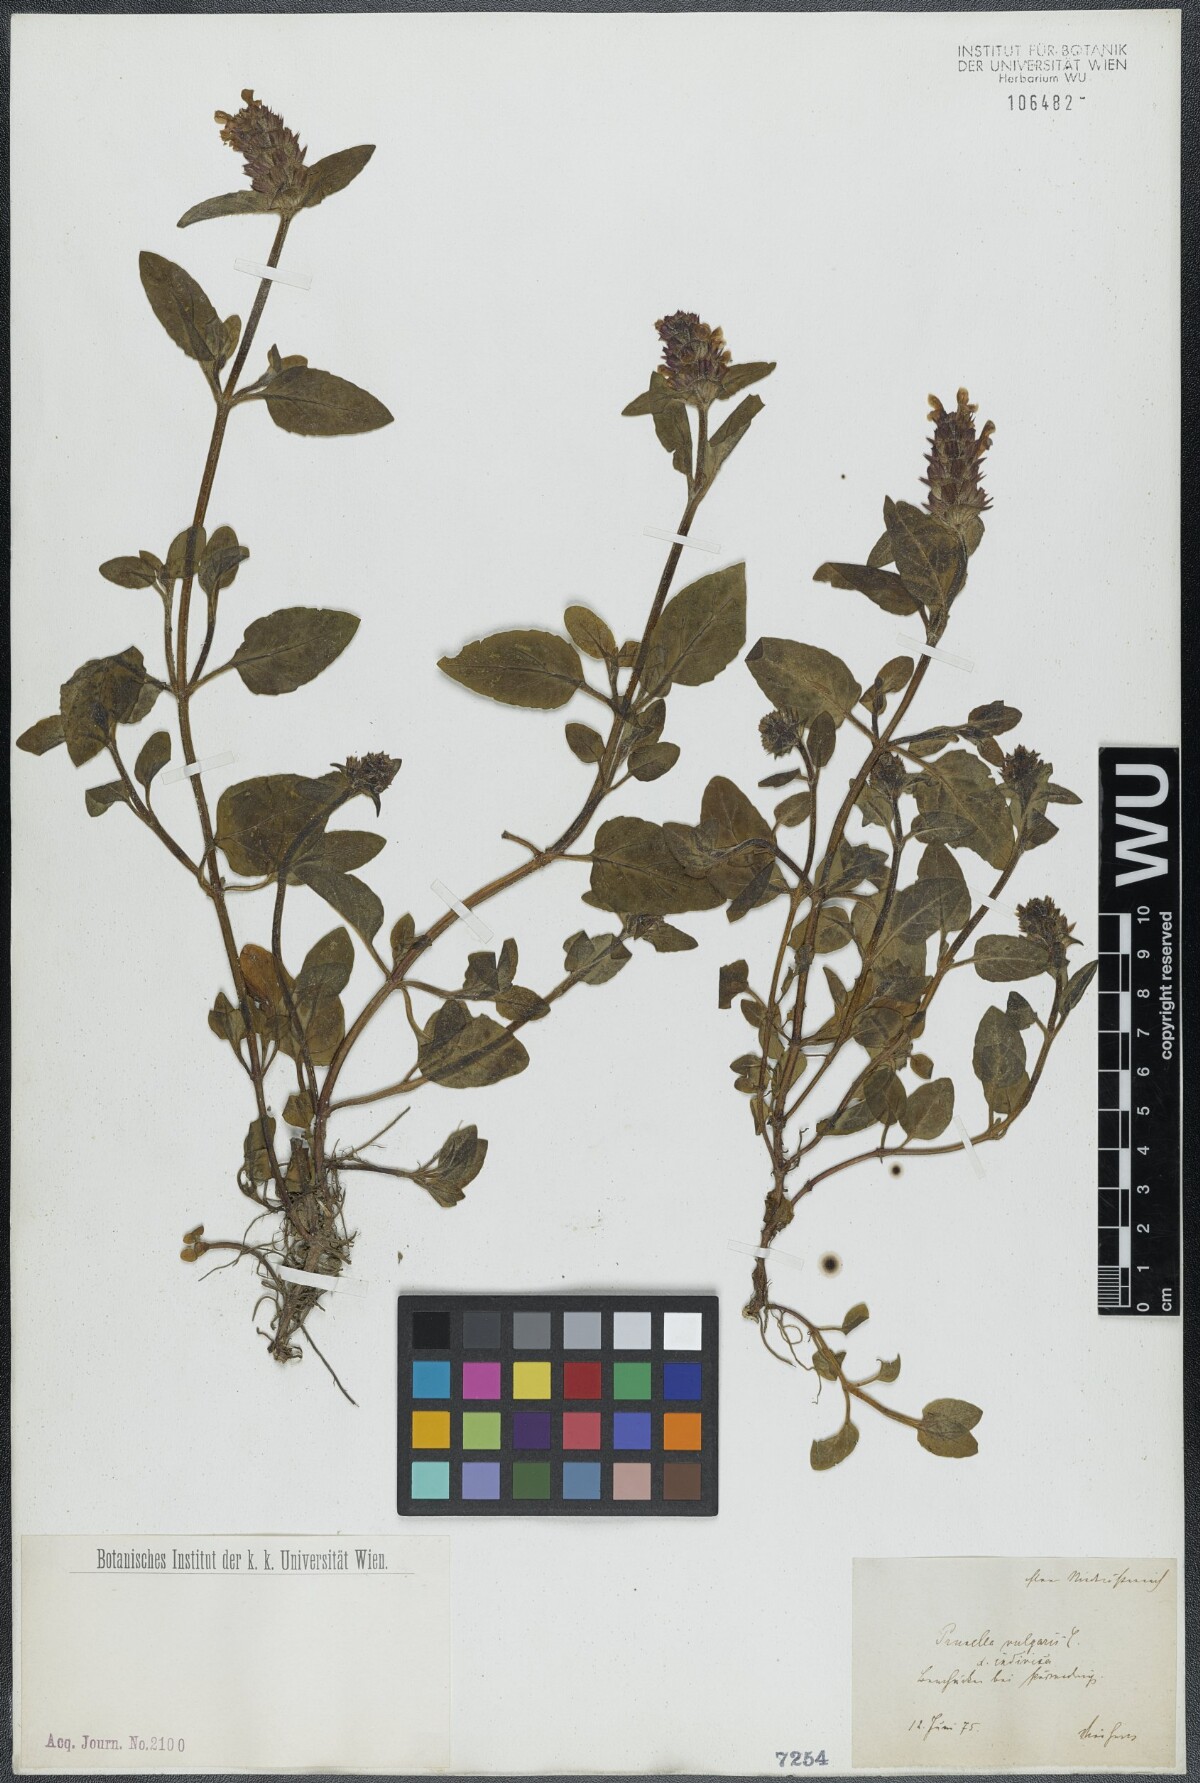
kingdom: Plantae
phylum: Tracheophyta
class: Magnoliopsida
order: Lamiales
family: Lamiaceae
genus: Prunella
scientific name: Prunella vulgaris
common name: Heal-all
